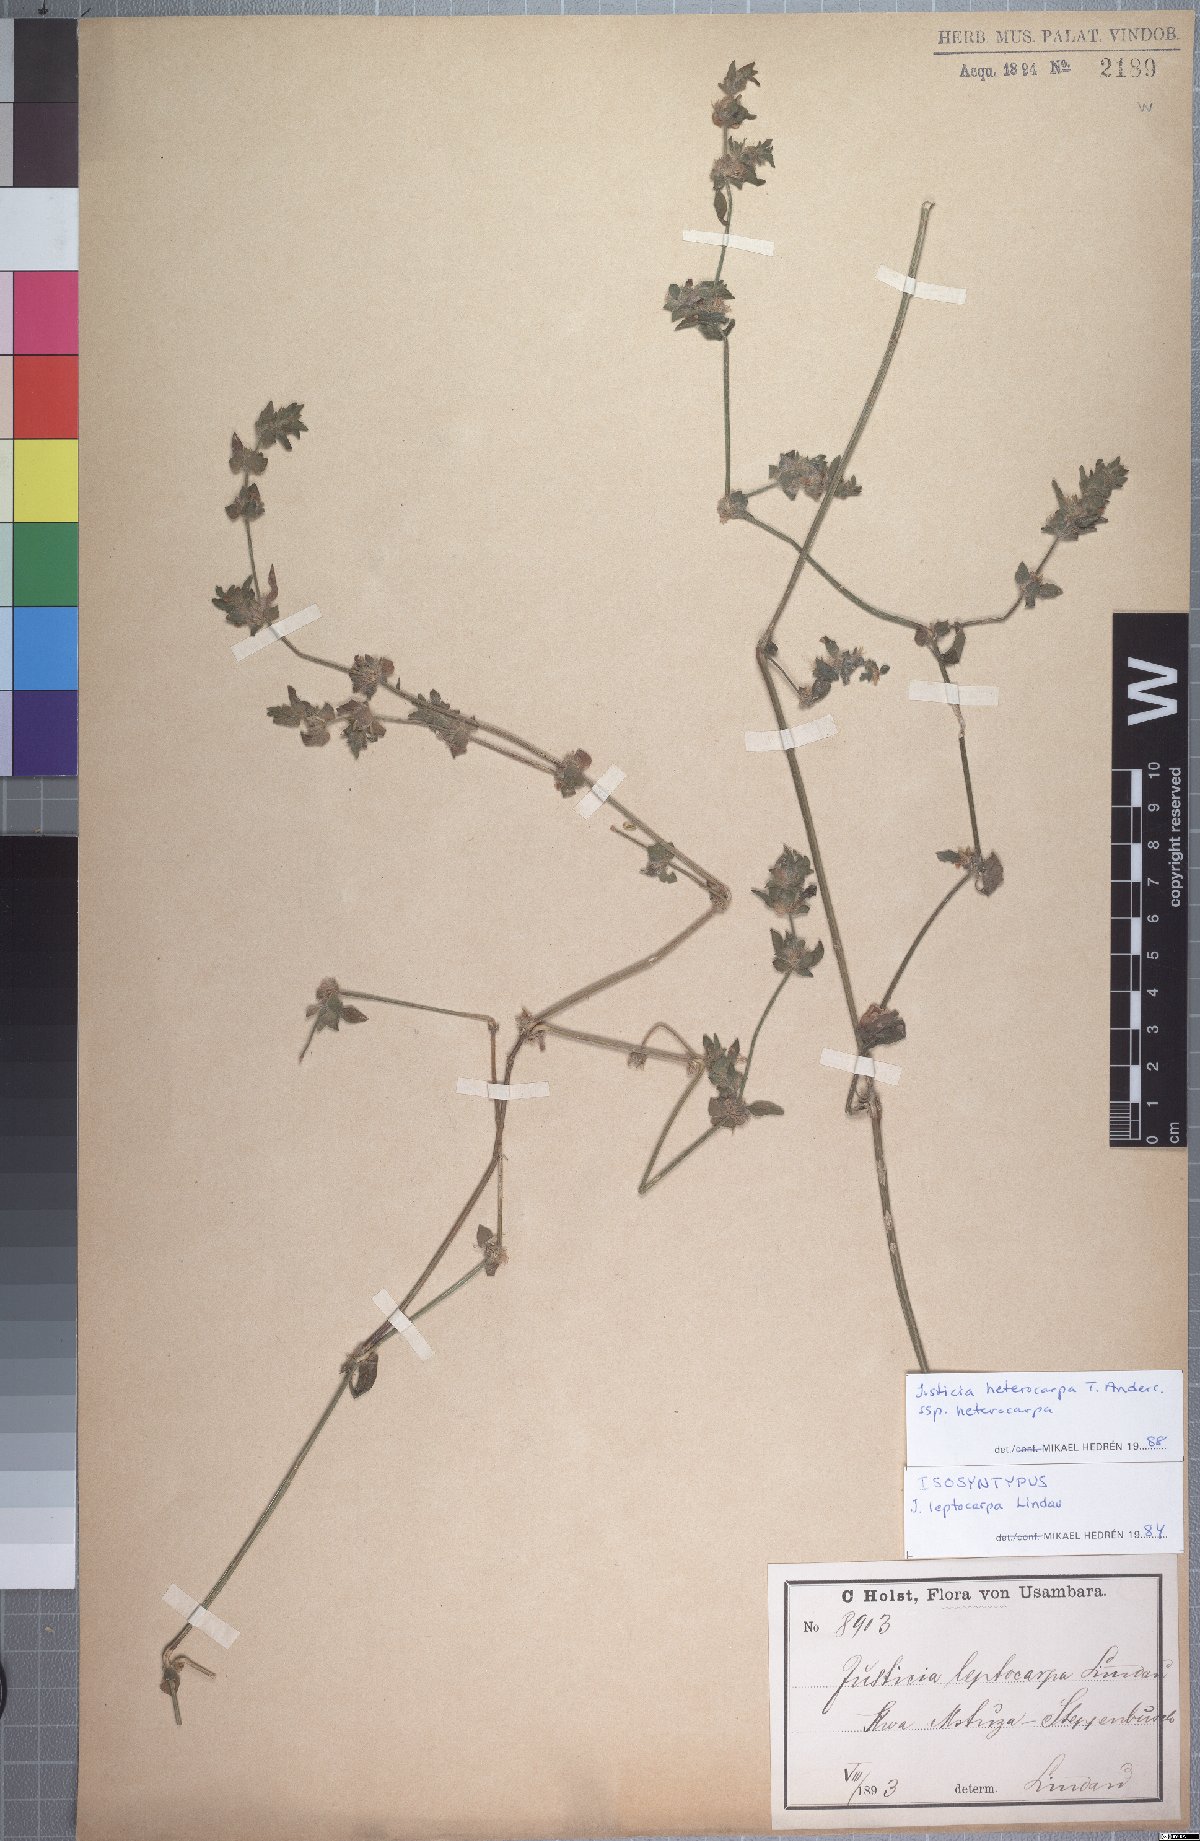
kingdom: Plantae
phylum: Tracheophyta
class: Magnoliopsida
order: Lamiales
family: Acanthaceae
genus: Justicia
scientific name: Justicia heterocarpa
